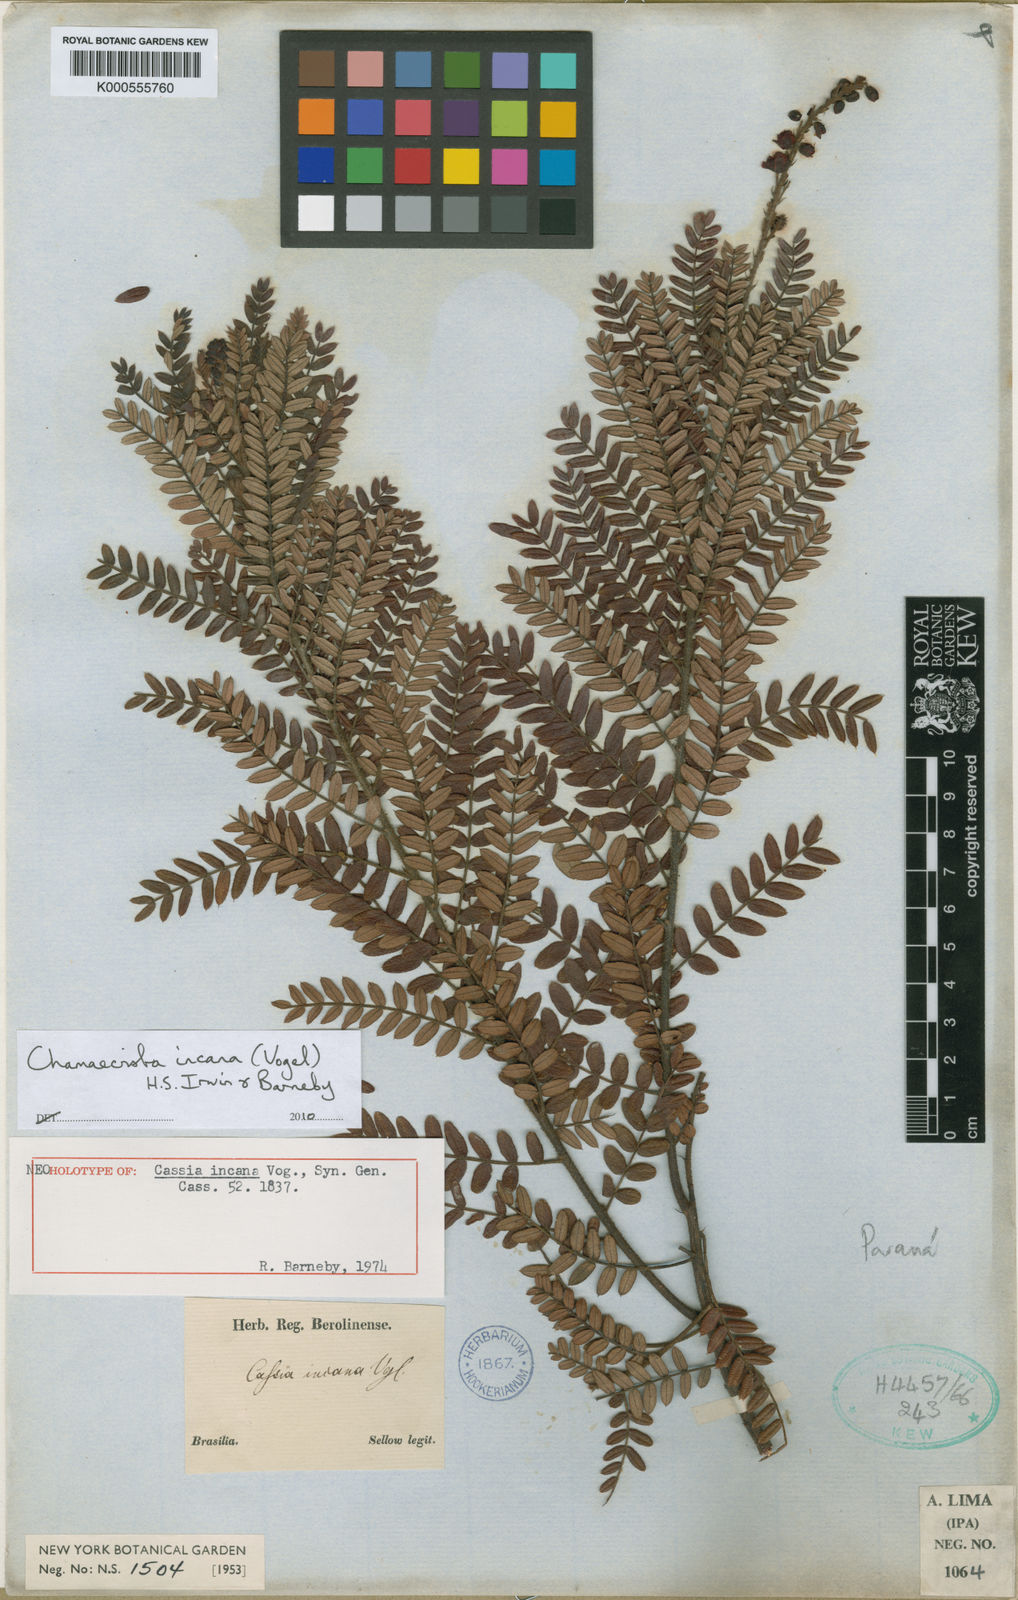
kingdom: Plantae
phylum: Tracheophyta
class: Magnoliopsida
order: Fabales
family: Fabaceae
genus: Chamaecrista
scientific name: Chamaecrista incana
